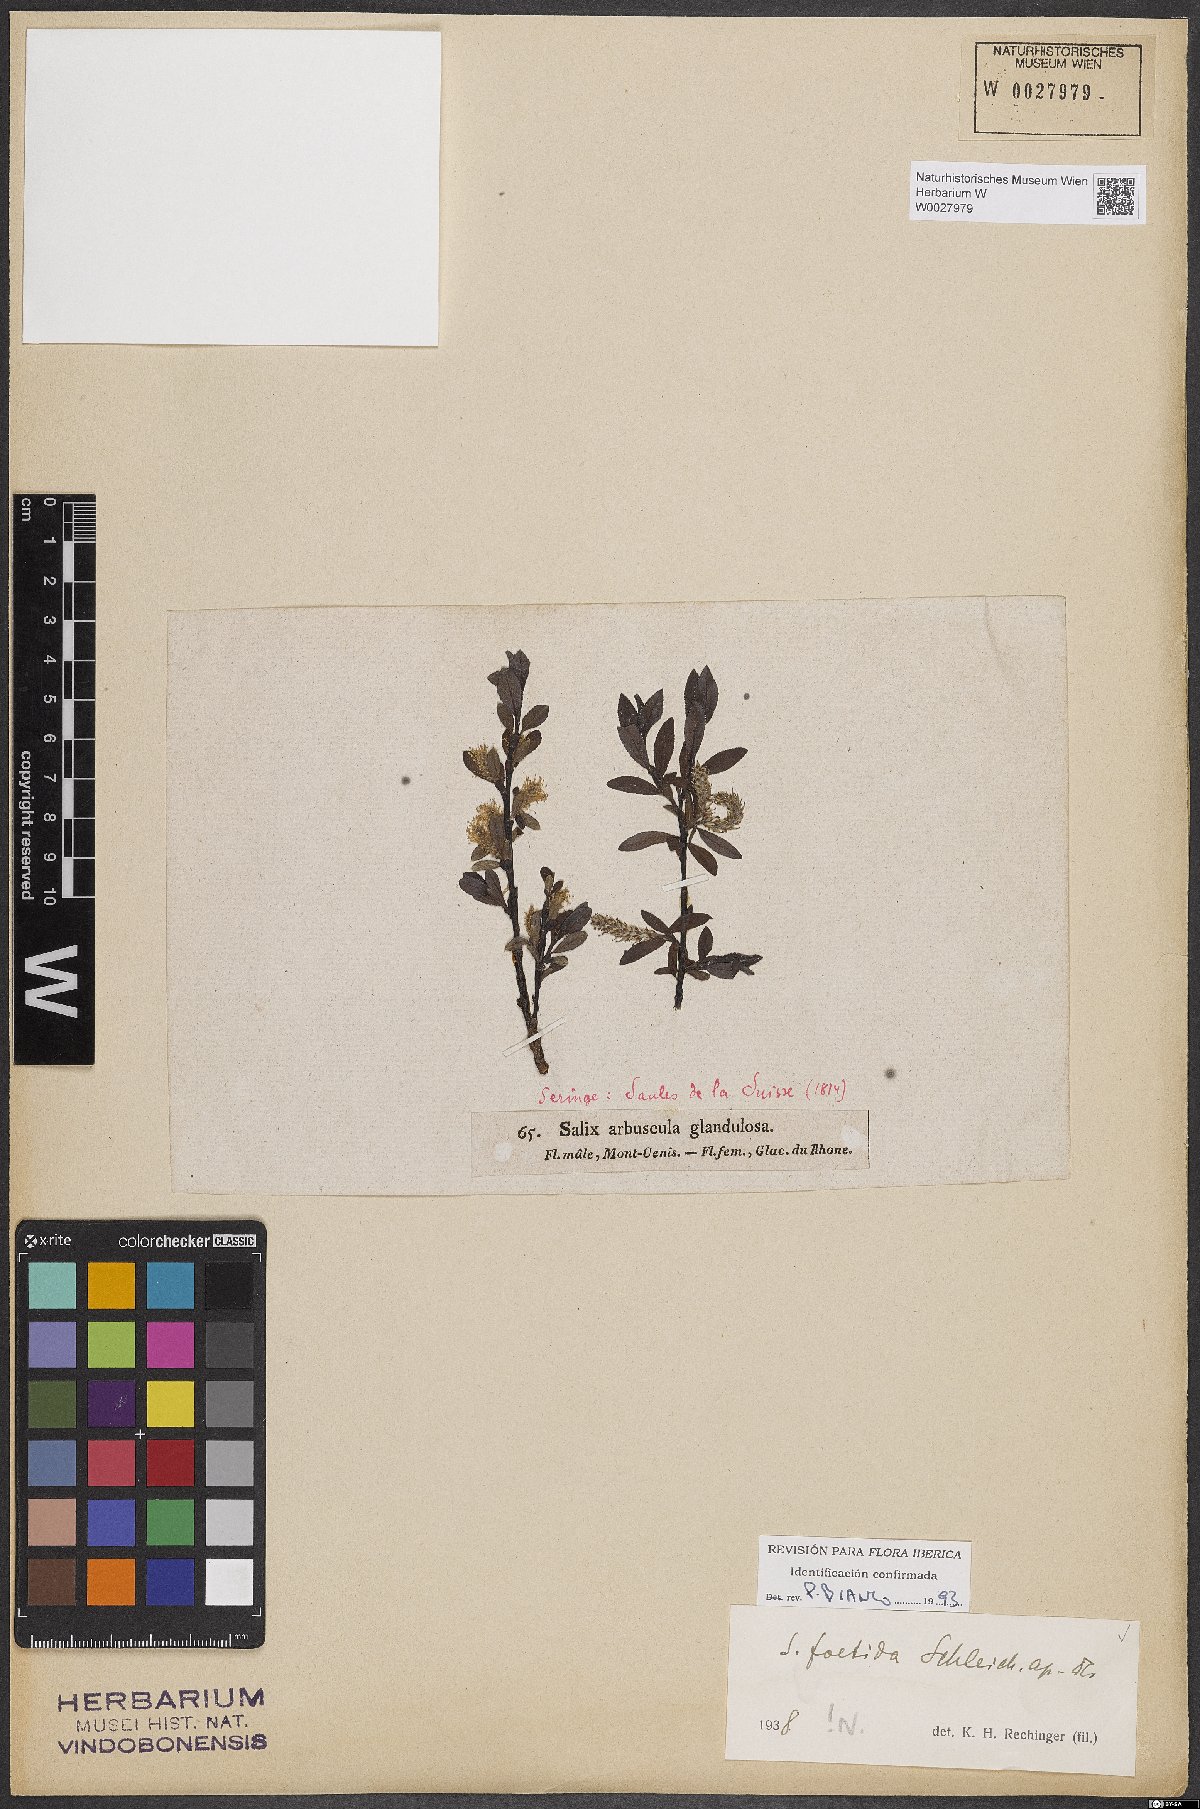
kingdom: Plantae
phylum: Tracheophyta
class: Magnoliopsida
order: Malpighiales
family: Salicaceae
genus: Salix
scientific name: Salix foetida
